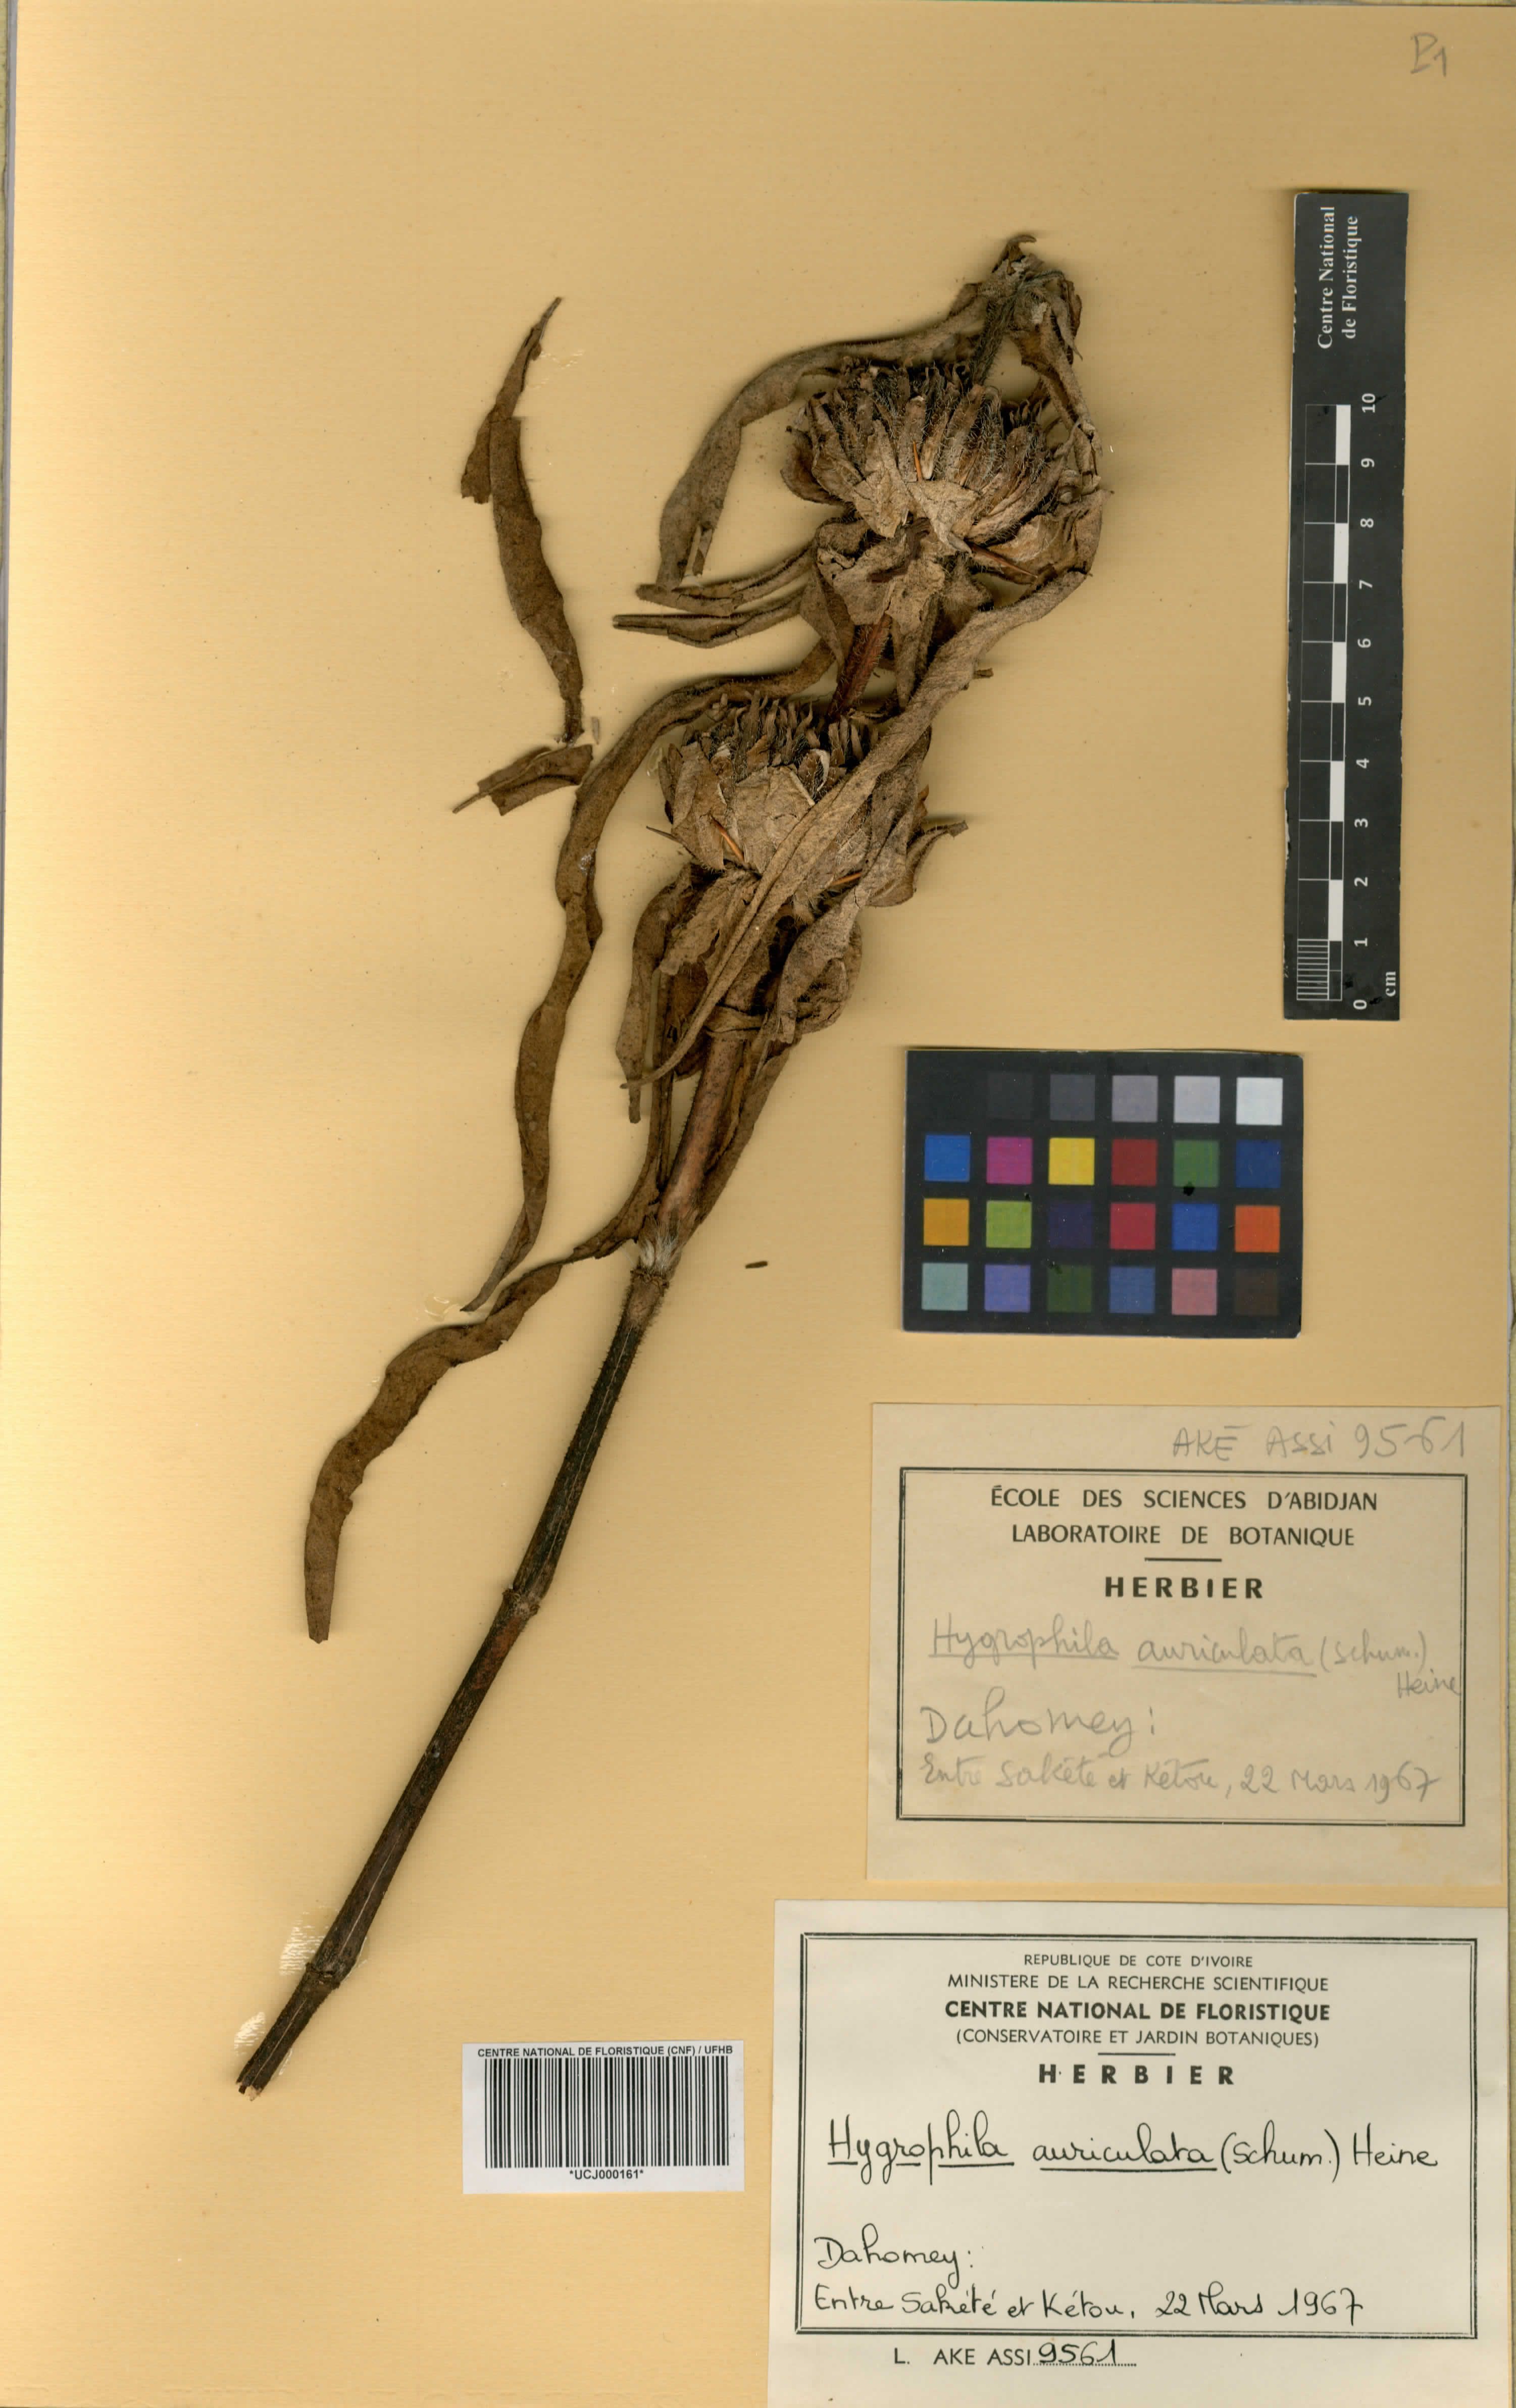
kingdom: Plantae
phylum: Tracheophyta
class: Magnoliopsida
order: Lamiales
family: Acanthaceae
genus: Hygrophila
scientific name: Hygrophila auriculata
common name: Hygrophila
